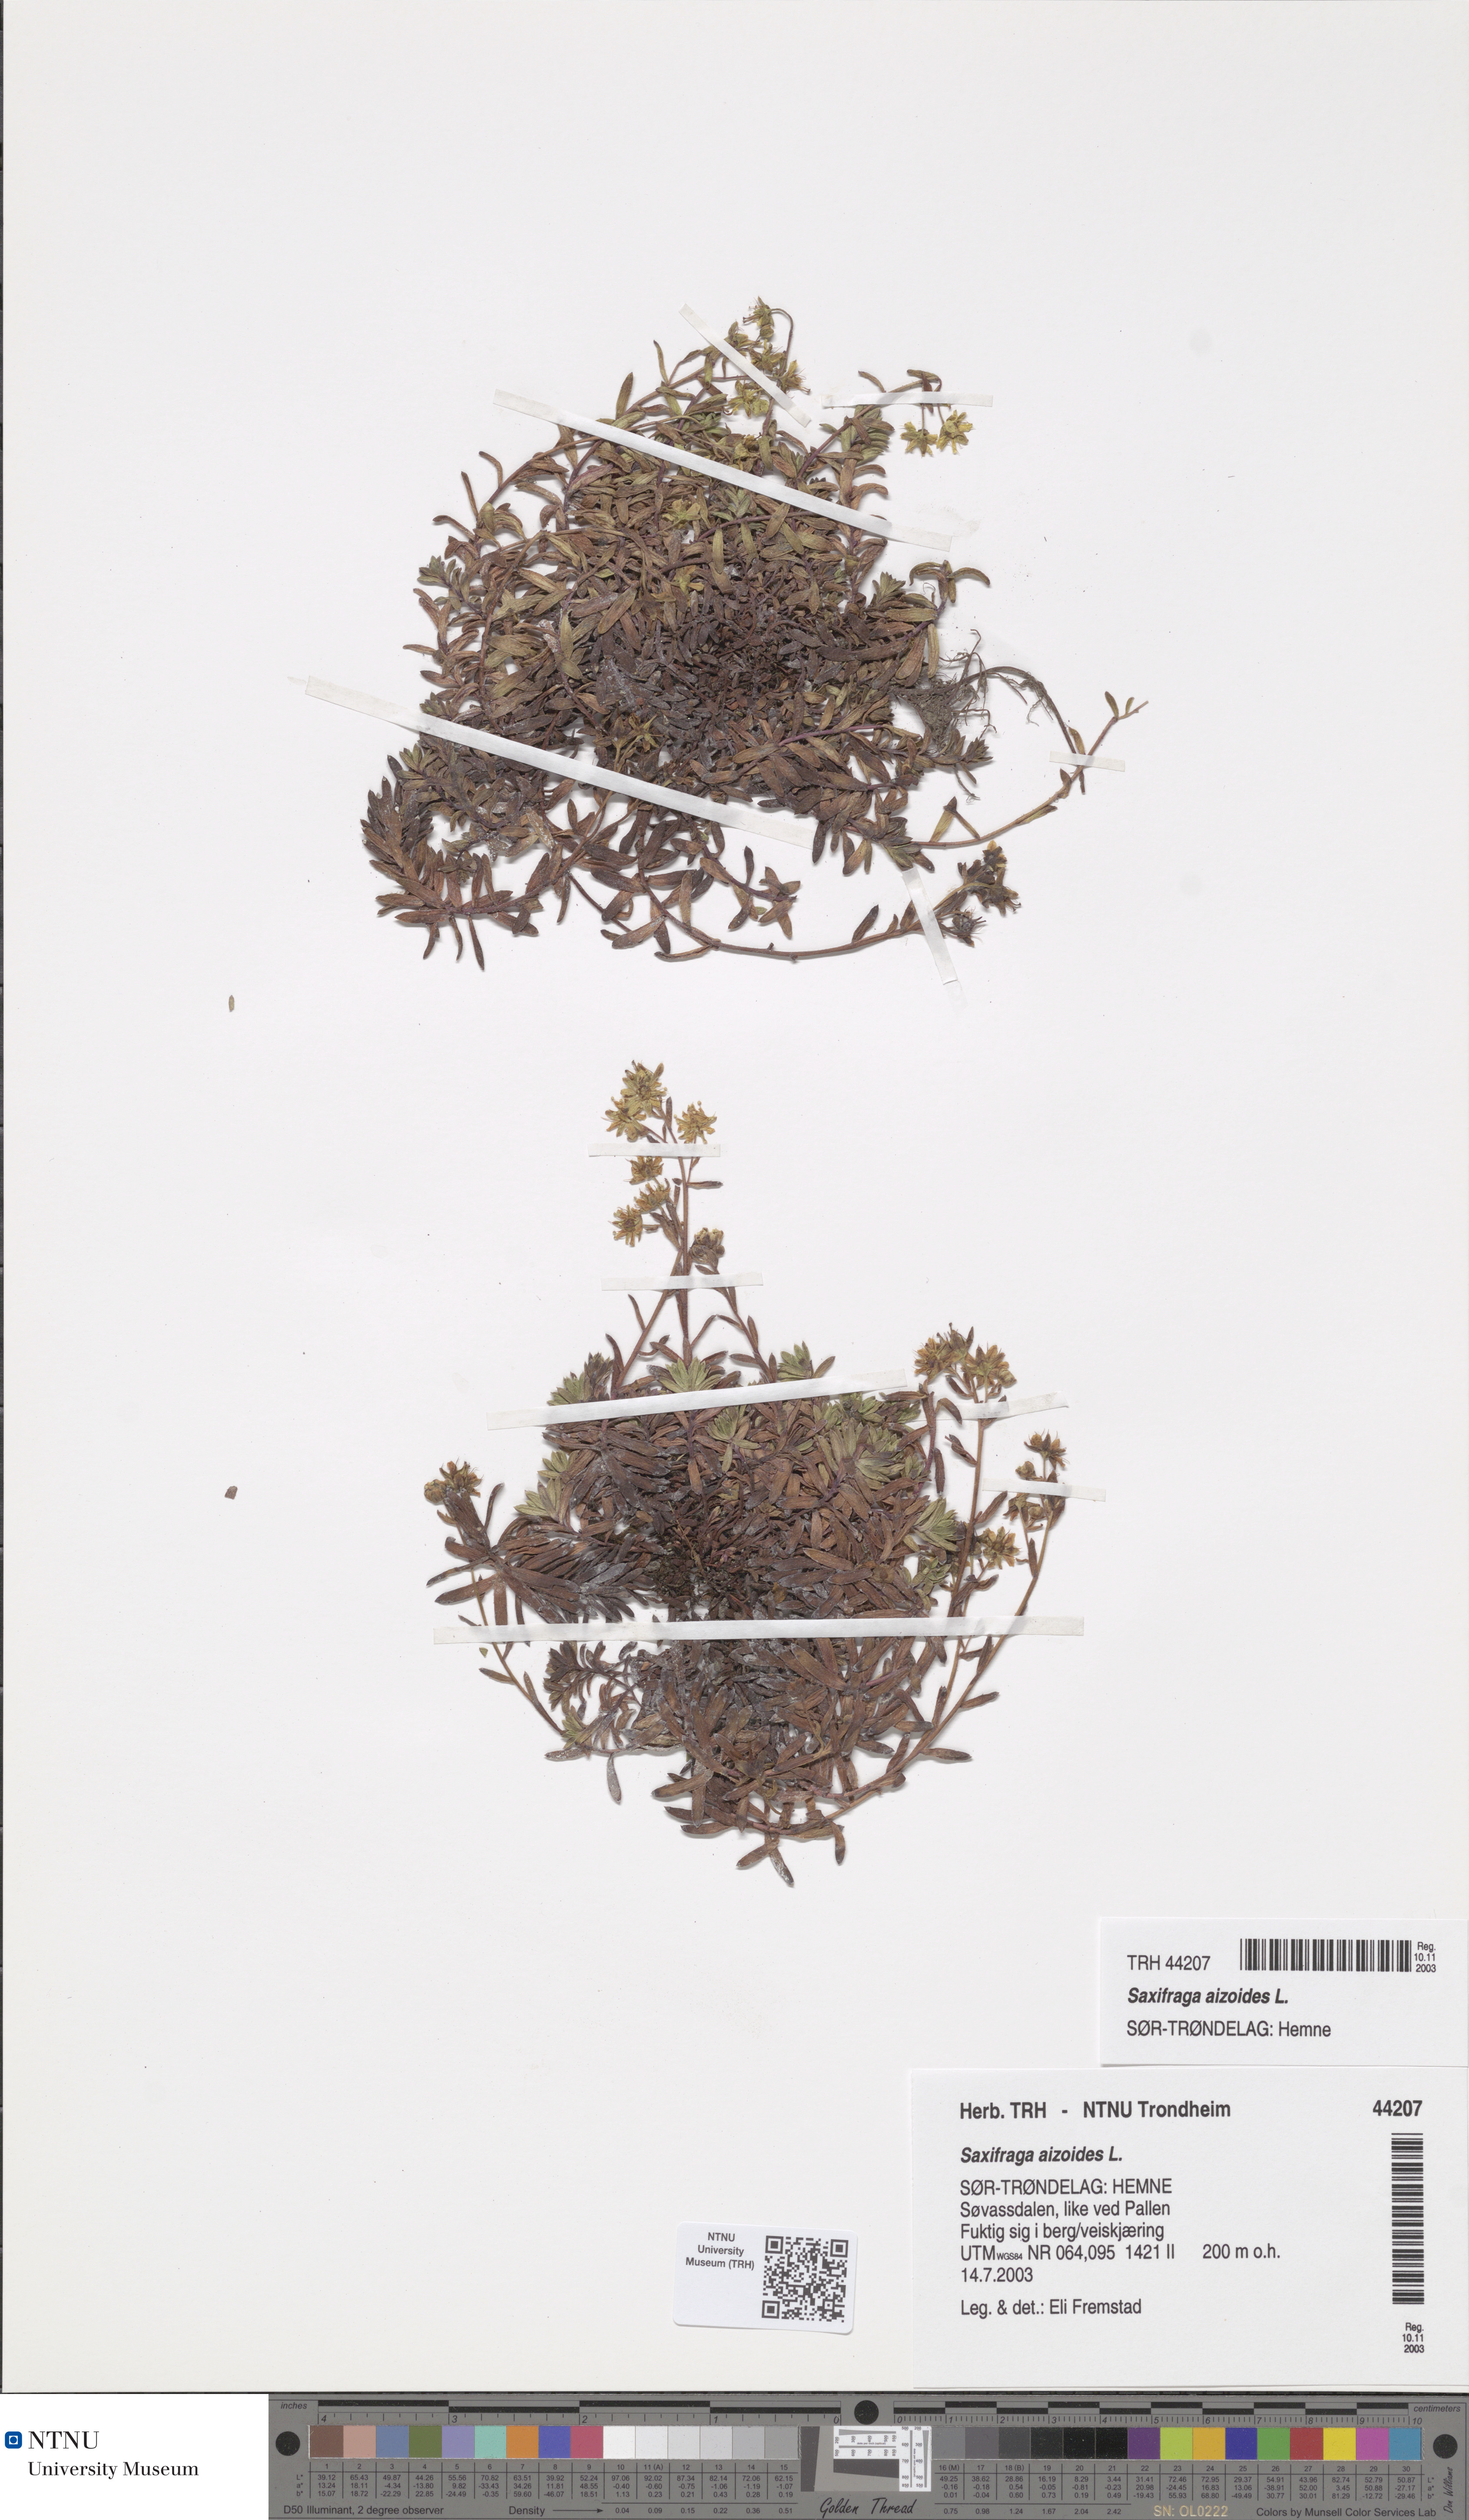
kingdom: Plantae
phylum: Tracheophyta
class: Magnoliopsida
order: Saxifragales
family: Saxifragaceae
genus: Saxifraga
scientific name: Saxifraga aizoides
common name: Yellow mountain saxifrage
